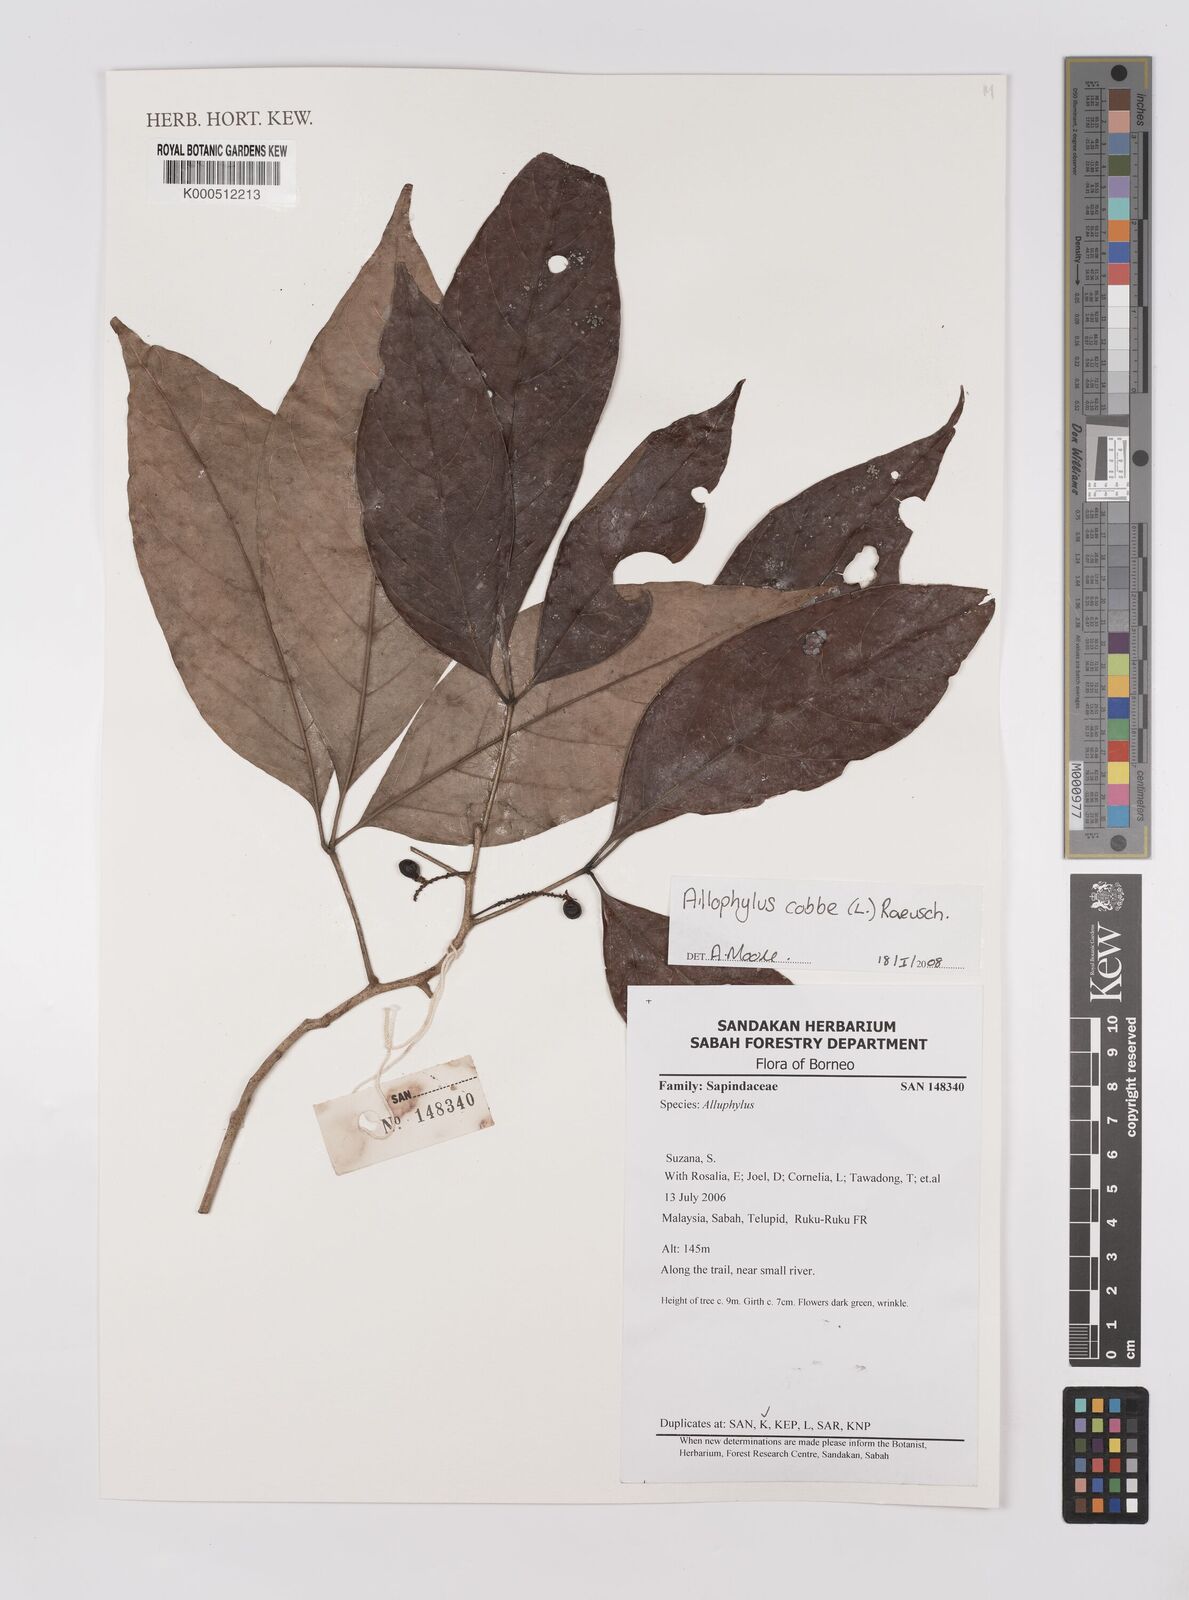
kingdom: Plantae
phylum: Tracheophyta
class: Magnoliopsida
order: Sapindales
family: Sapindaceae
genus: Allophylus
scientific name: Allophylus
